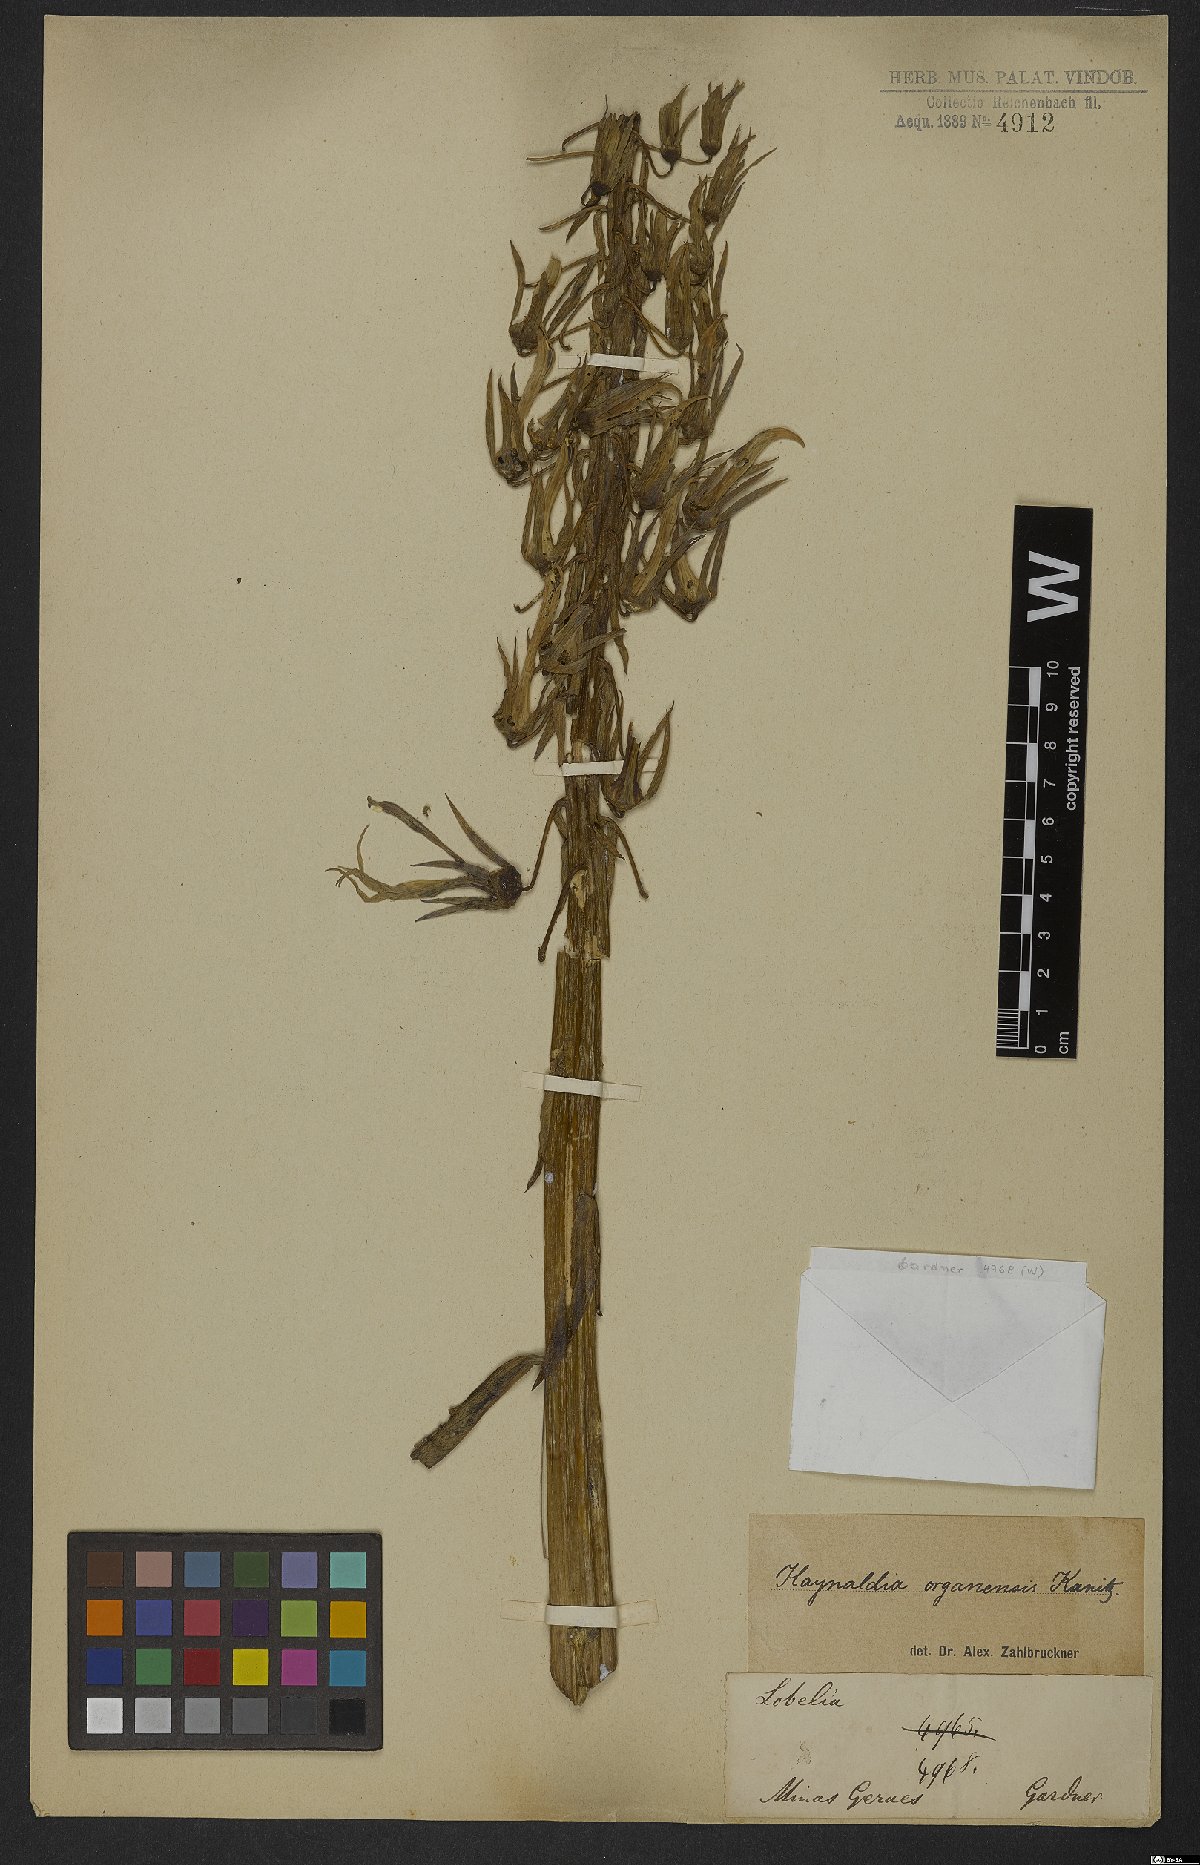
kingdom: Plantae
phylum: Tracheophyta
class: Magnoliopsida
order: Asterales
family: Campanulaceae
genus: Lobelia
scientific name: Lobelia organensis
